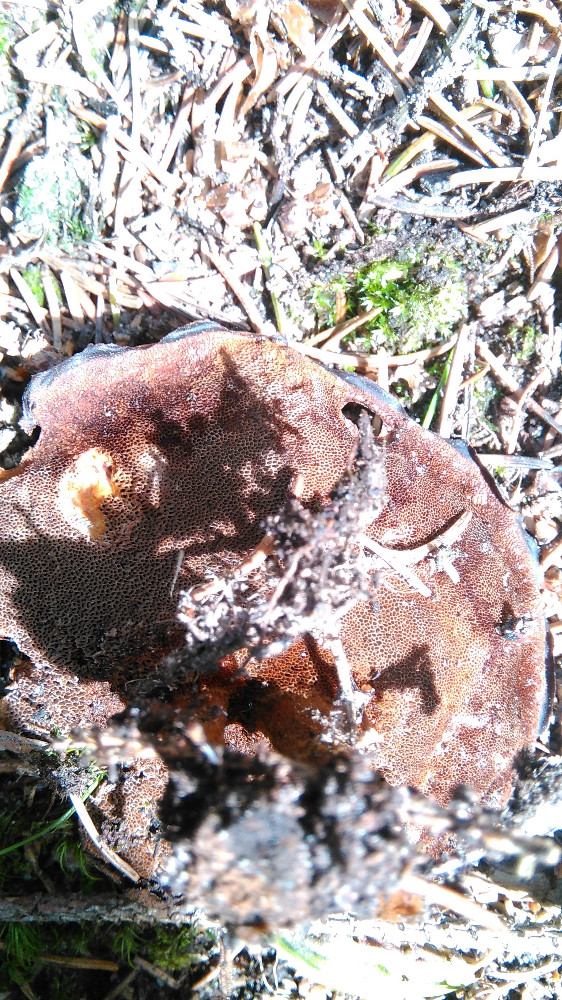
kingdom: Fungi
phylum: Basidiomycota
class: Agaricomycetes
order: Hymenochaetales
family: Hymenochaetaceae
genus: Coltricia
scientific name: Coltricia perennis
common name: almindelig sandporesvamp
